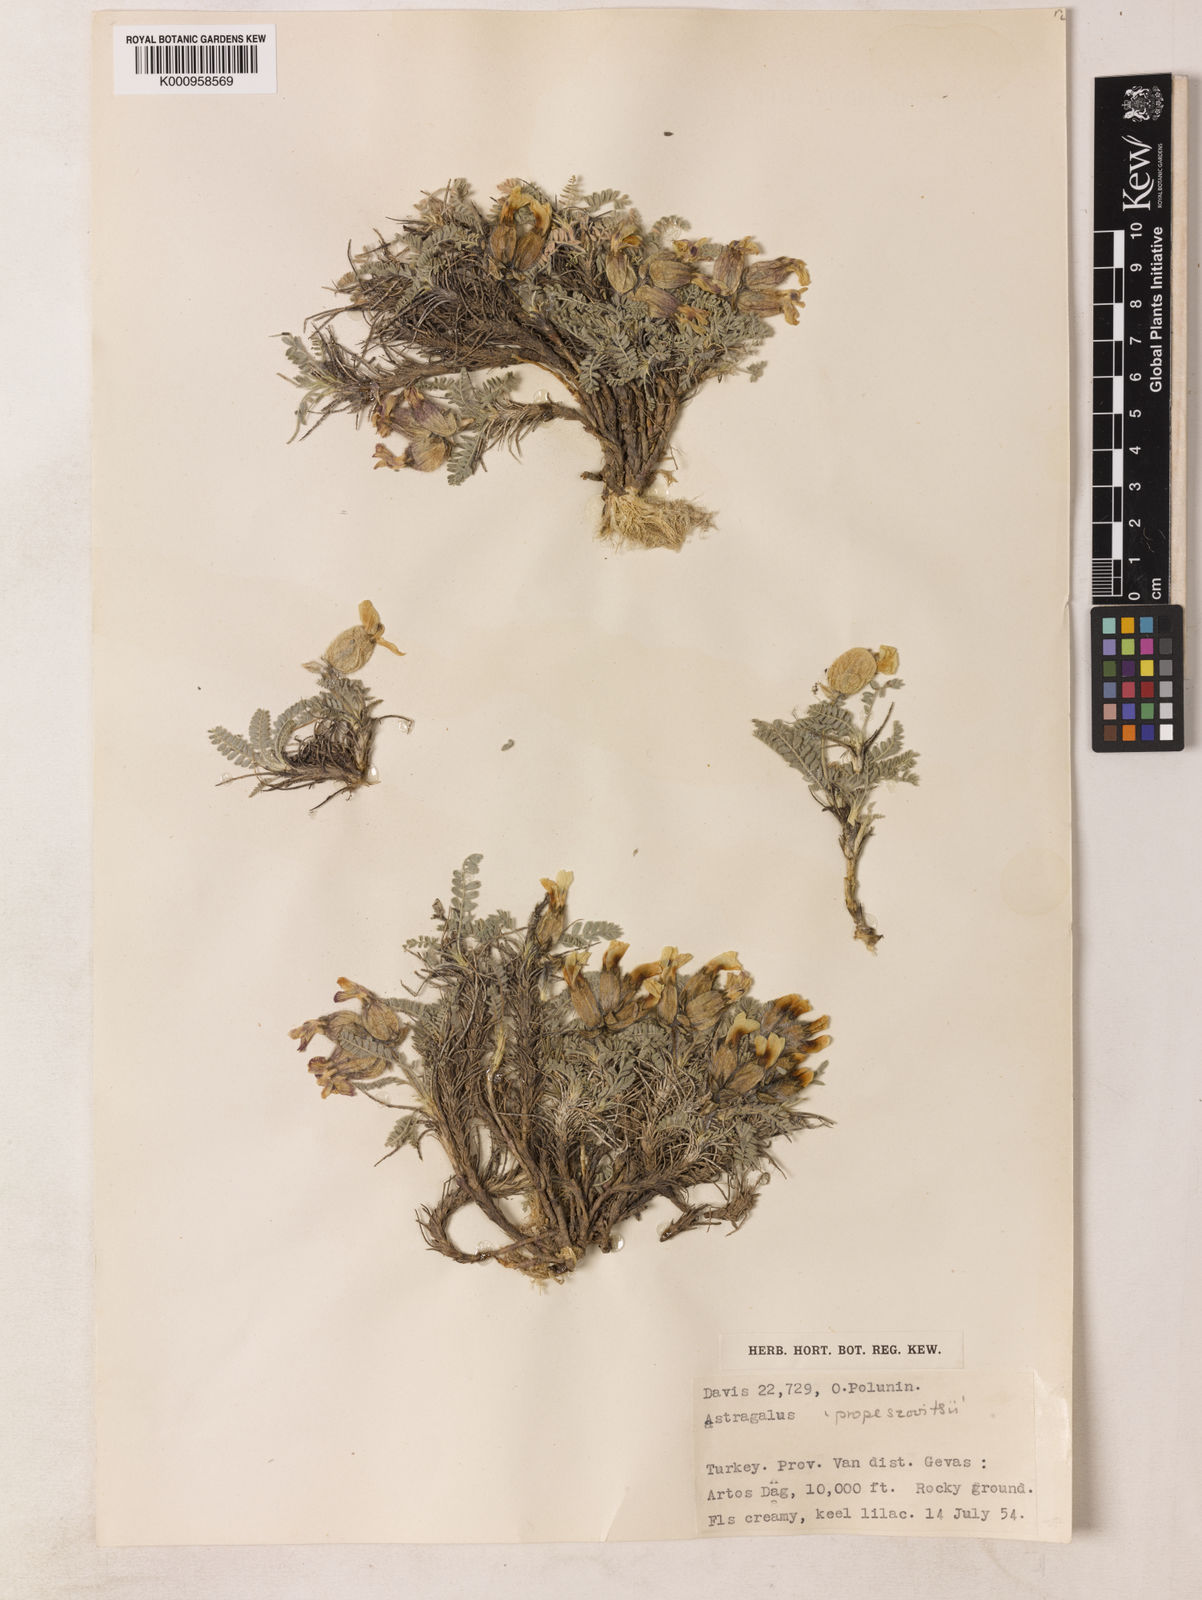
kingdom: Plantae
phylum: Tracheophyta
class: Magnoliopsida
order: Fabales
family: Fabaceae
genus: Astragalus
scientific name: Astragalus ermineus
